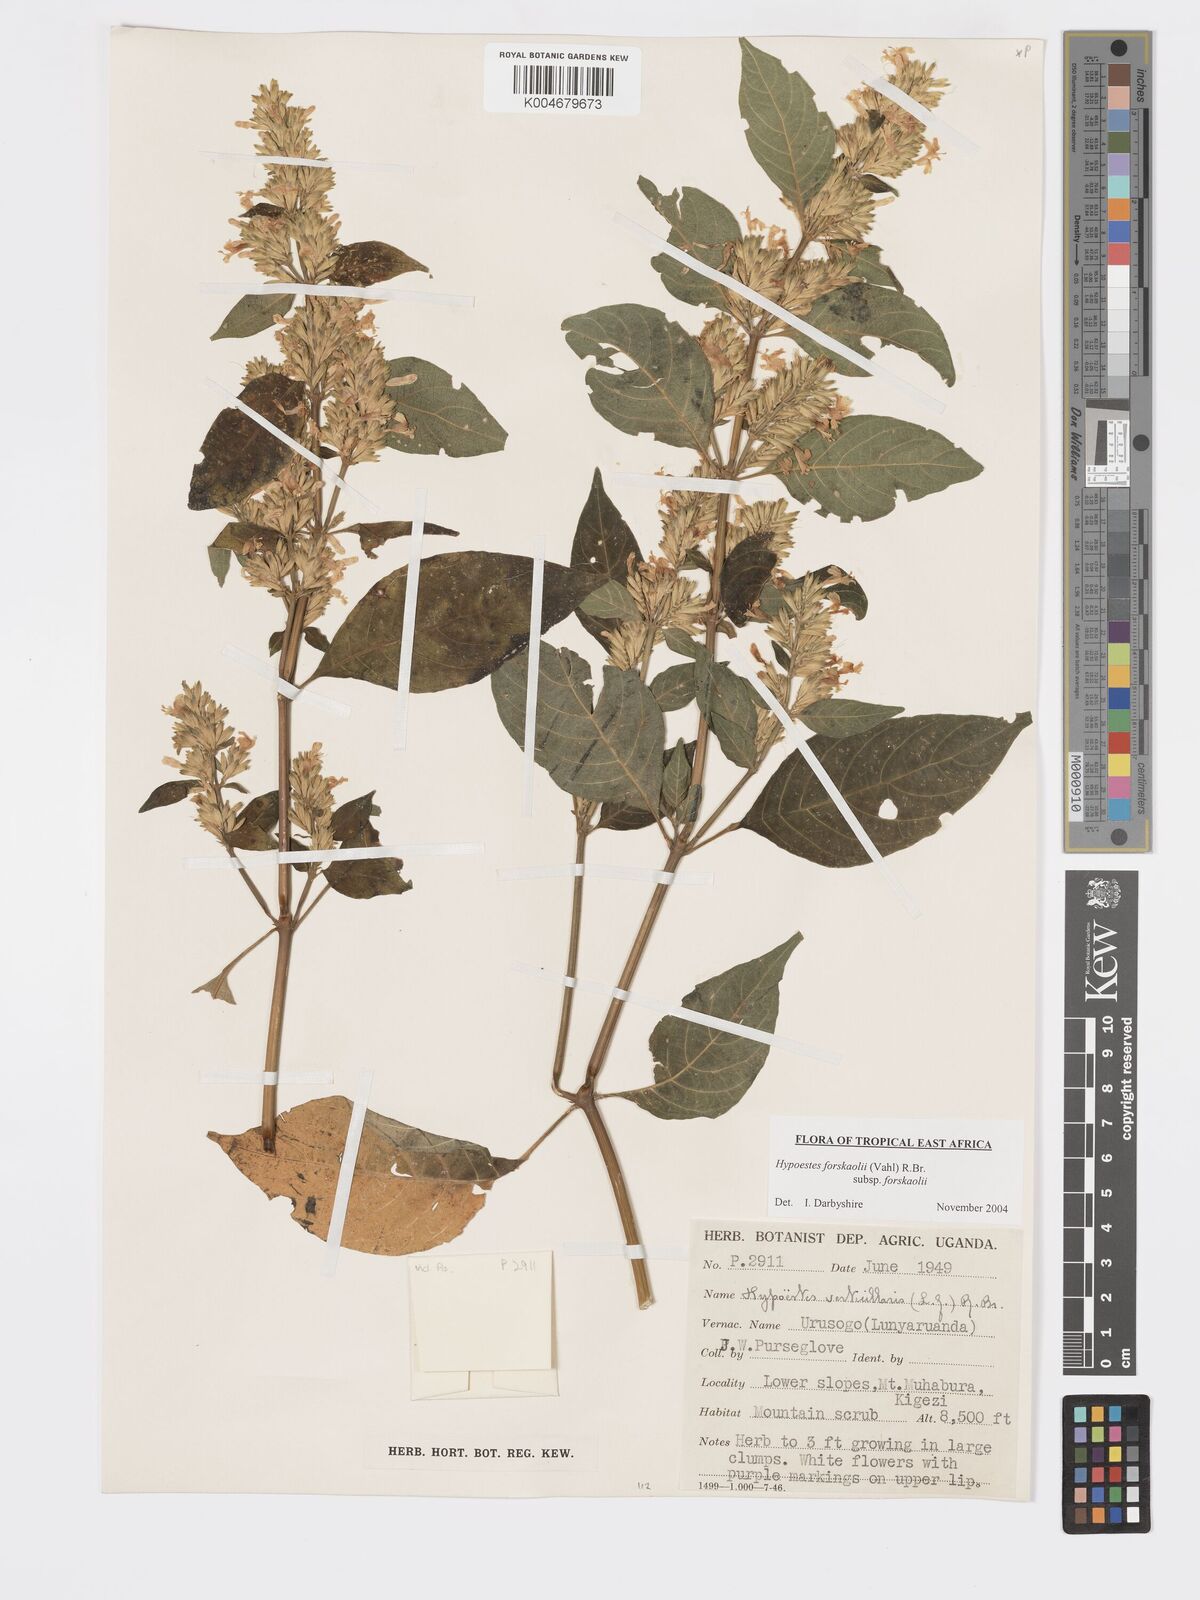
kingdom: Plantae
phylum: Tracheophyta
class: Magnoliopsida
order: Lamiales
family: Acanthaceae
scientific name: Acanthaceae
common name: Acanthaceae
